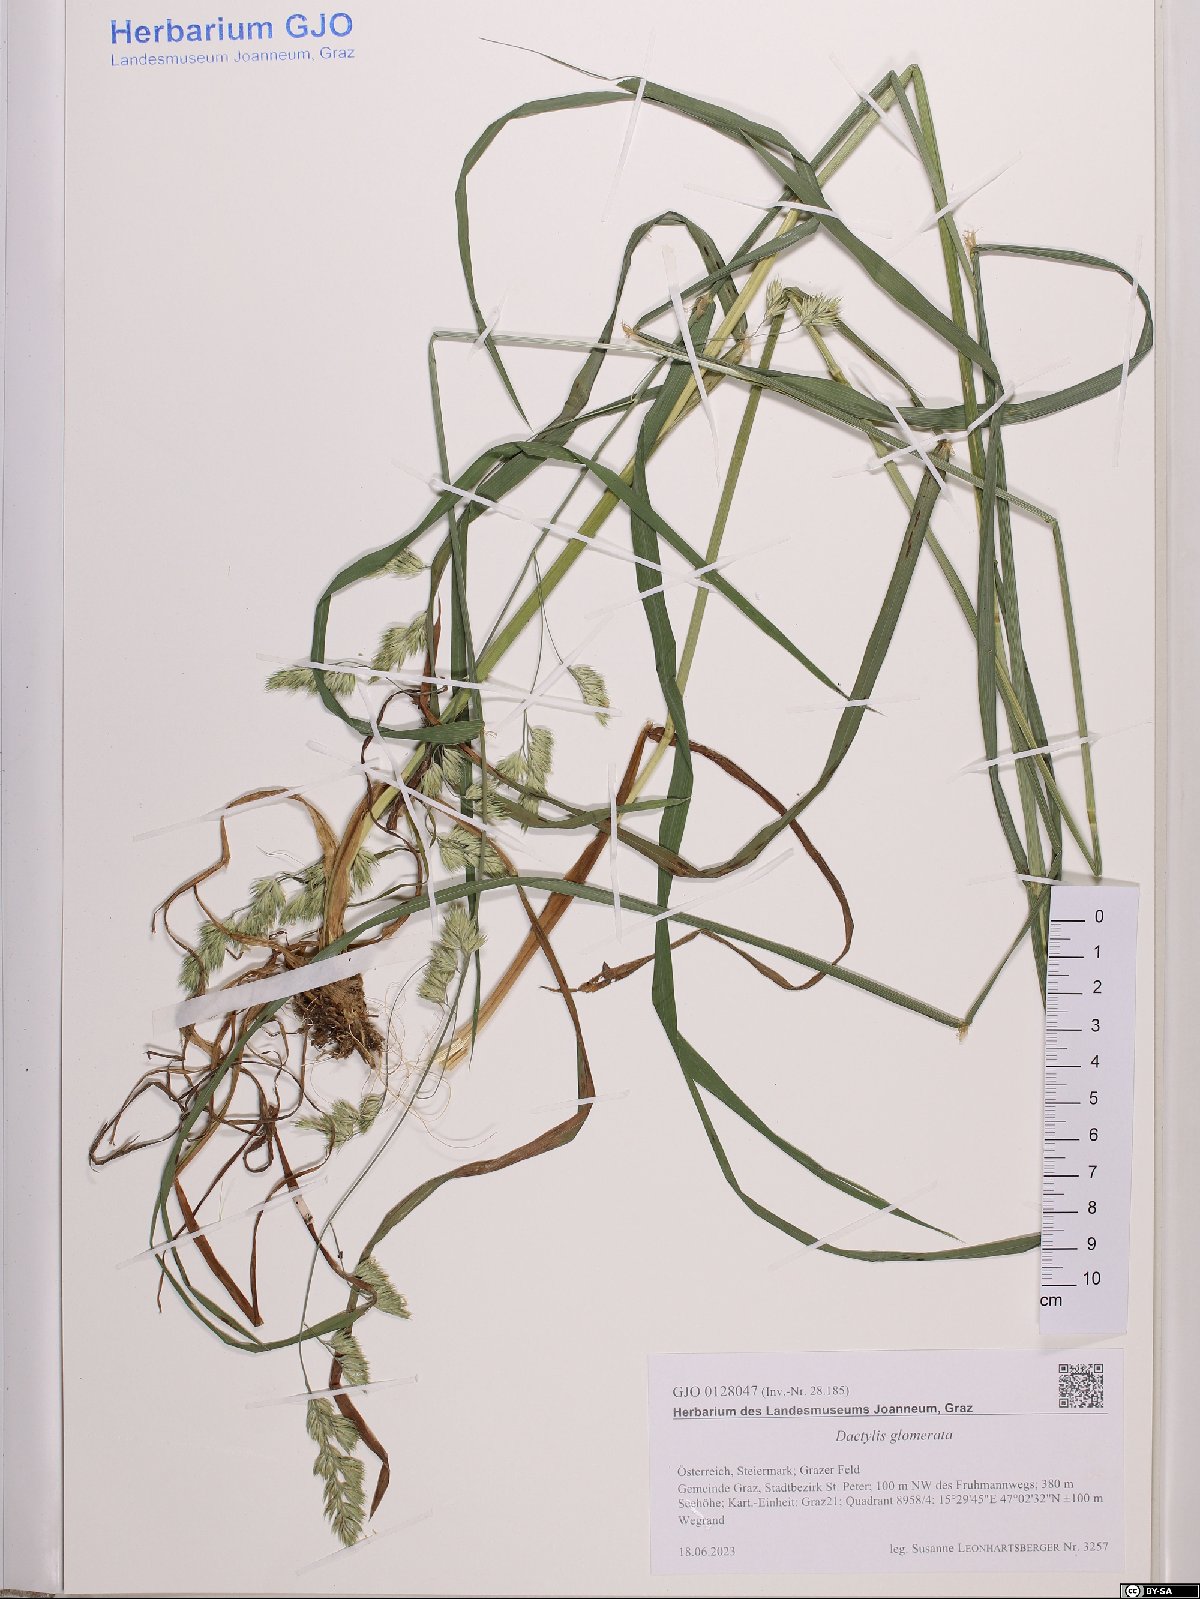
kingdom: Plantae
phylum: Tracheophyta
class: Liliopsida
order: Poales
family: Poaceae
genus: Dactylis
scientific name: Dactylis glomerata
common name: Orchardgrass
